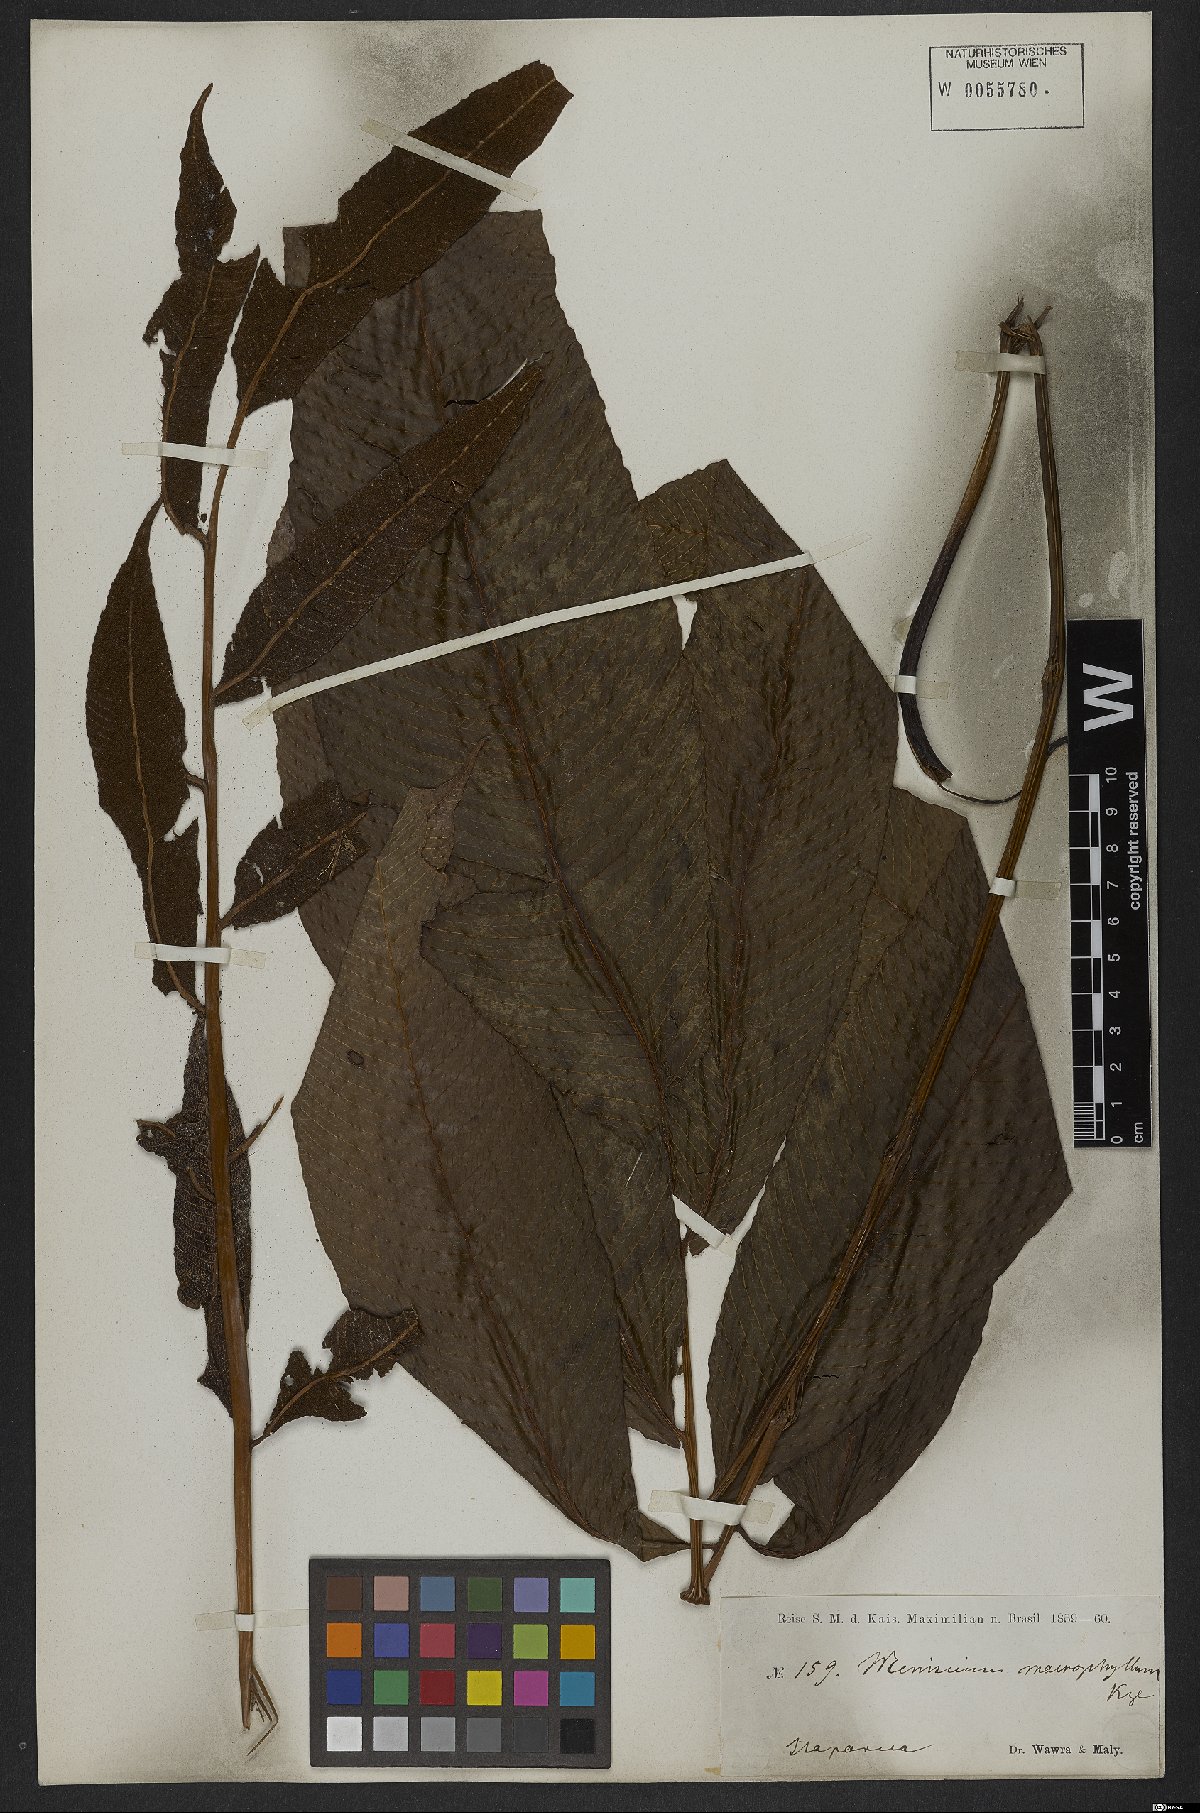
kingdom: Plantae
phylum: Tracheophyta
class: Polypodiopsida
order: Polypodiales
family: Thelypteridaceae
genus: Meniscium
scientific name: Meniscium reticulatum
